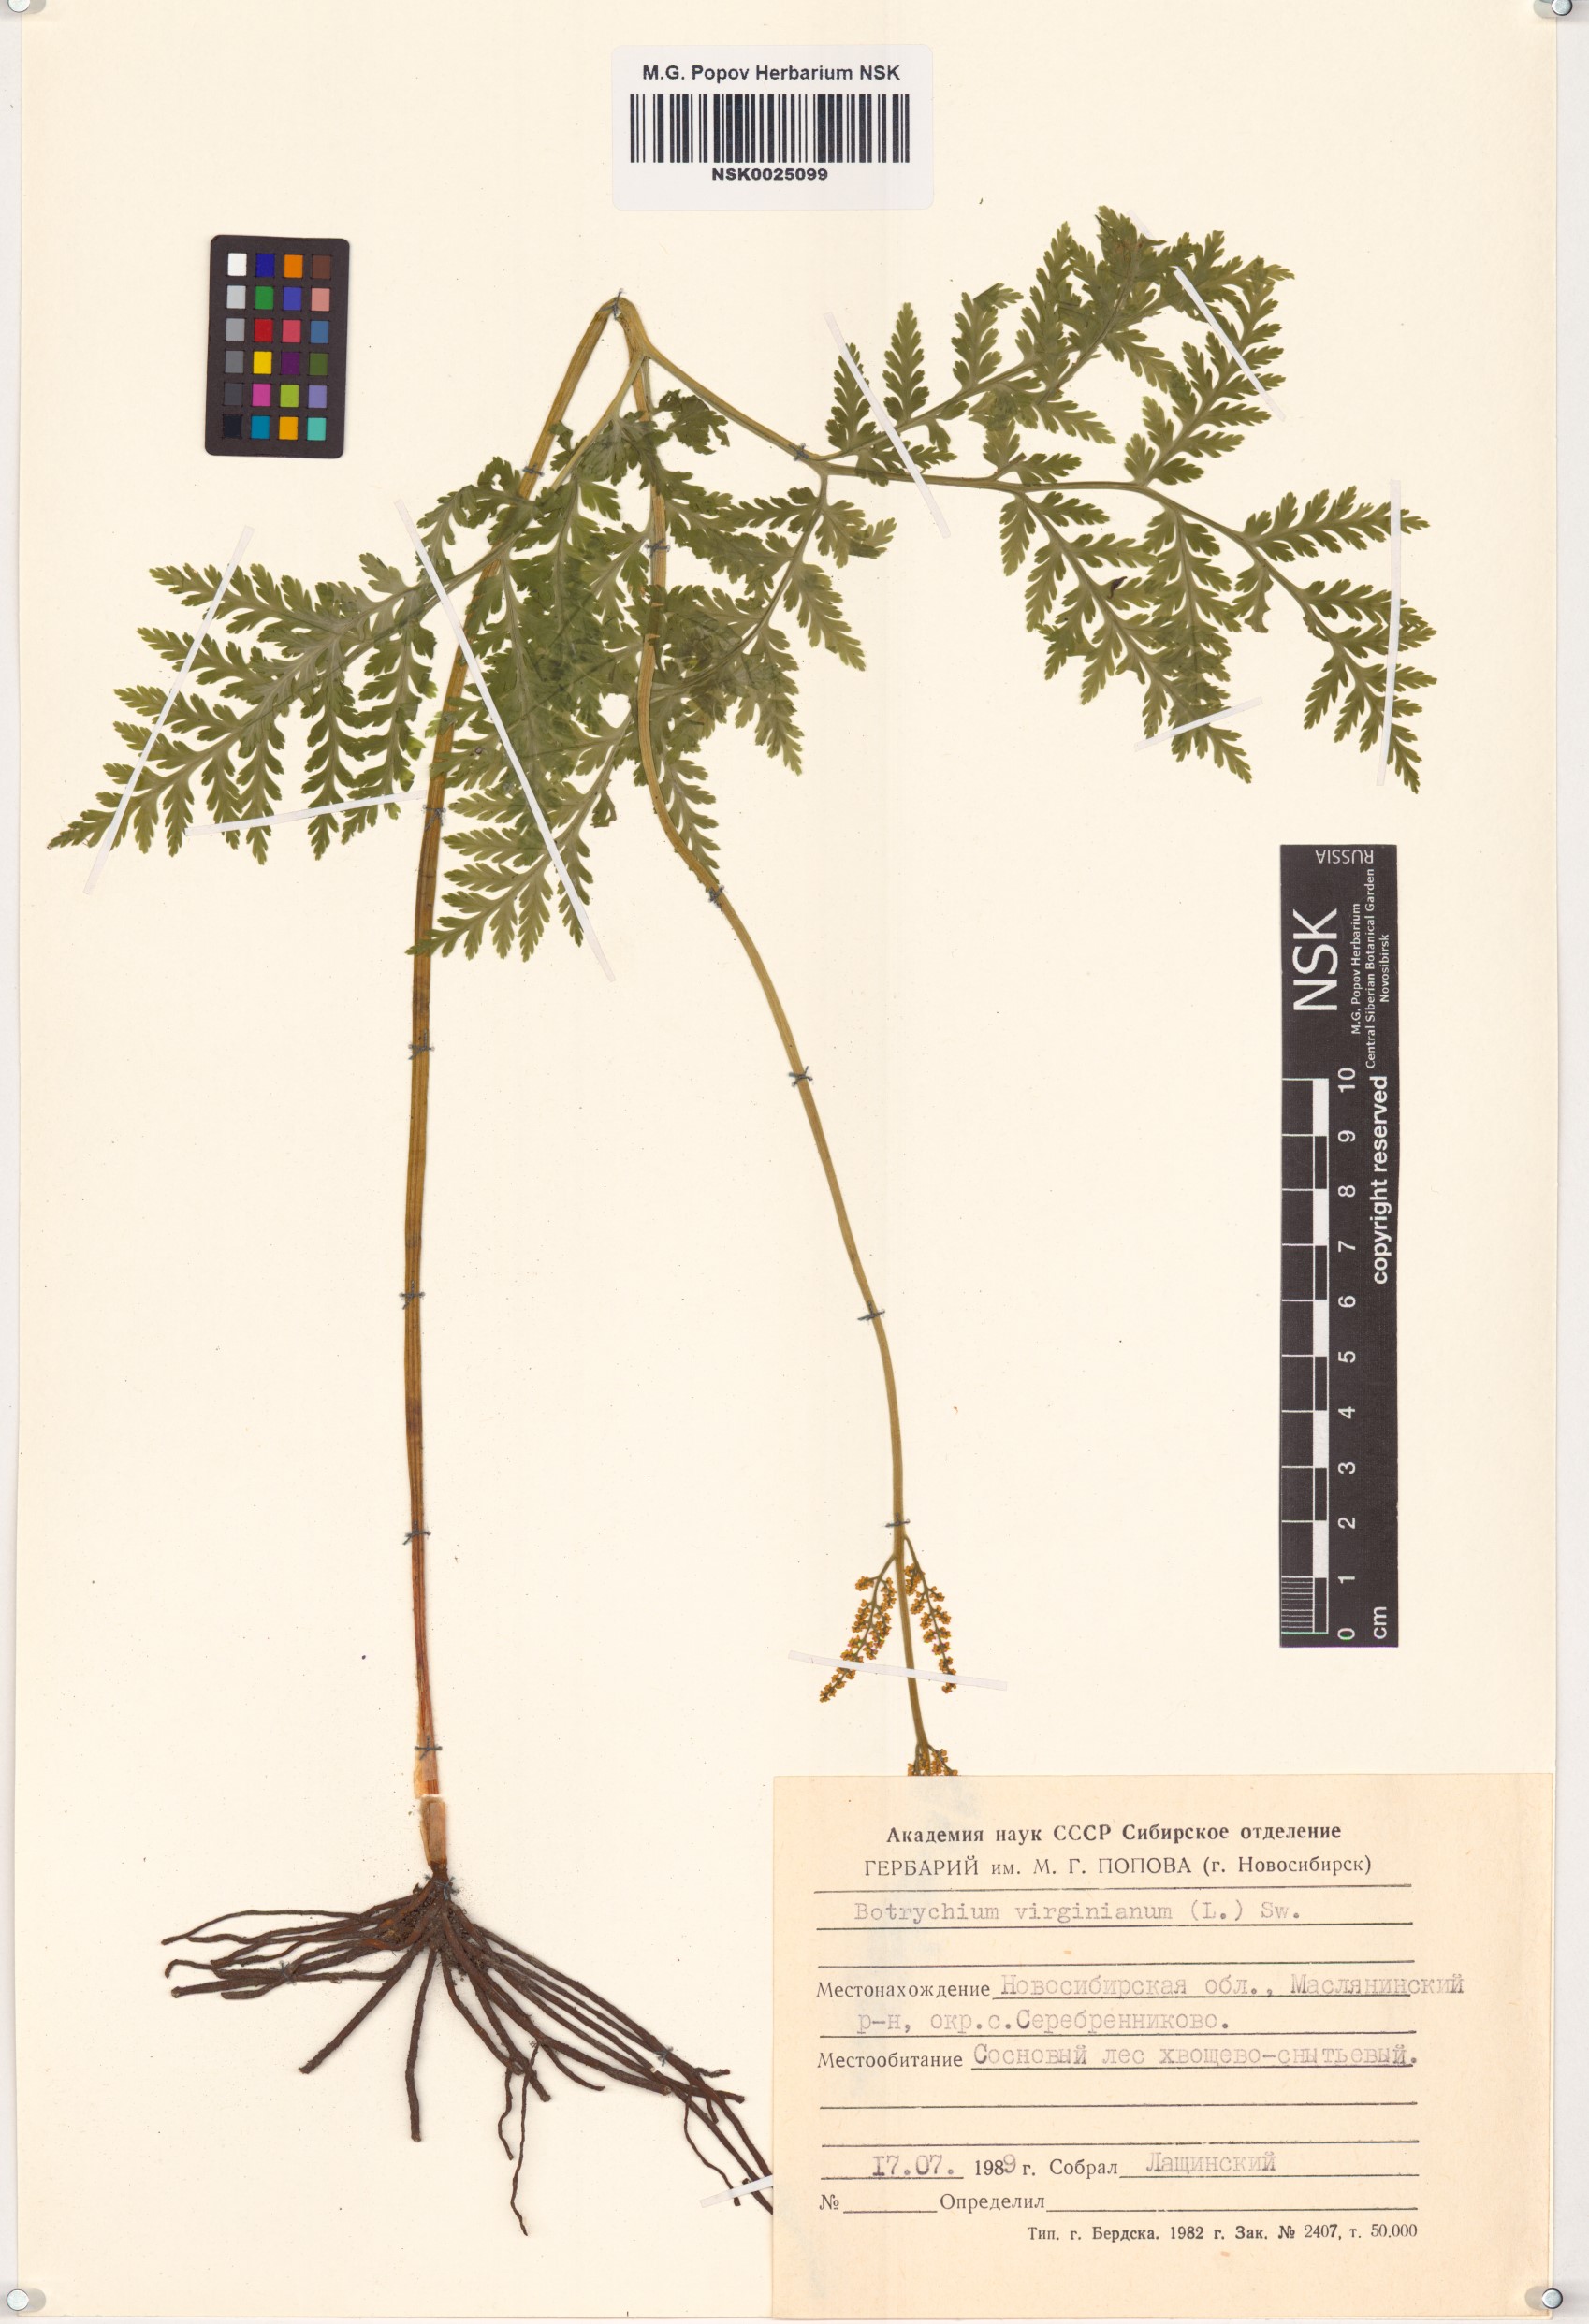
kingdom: Plantae
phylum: Tracheophyta
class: Polypodiopsida
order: Ophioglossales
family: Ophioglossaceae
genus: Botrypus
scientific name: Botrypus virginianus
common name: Common grapefern
